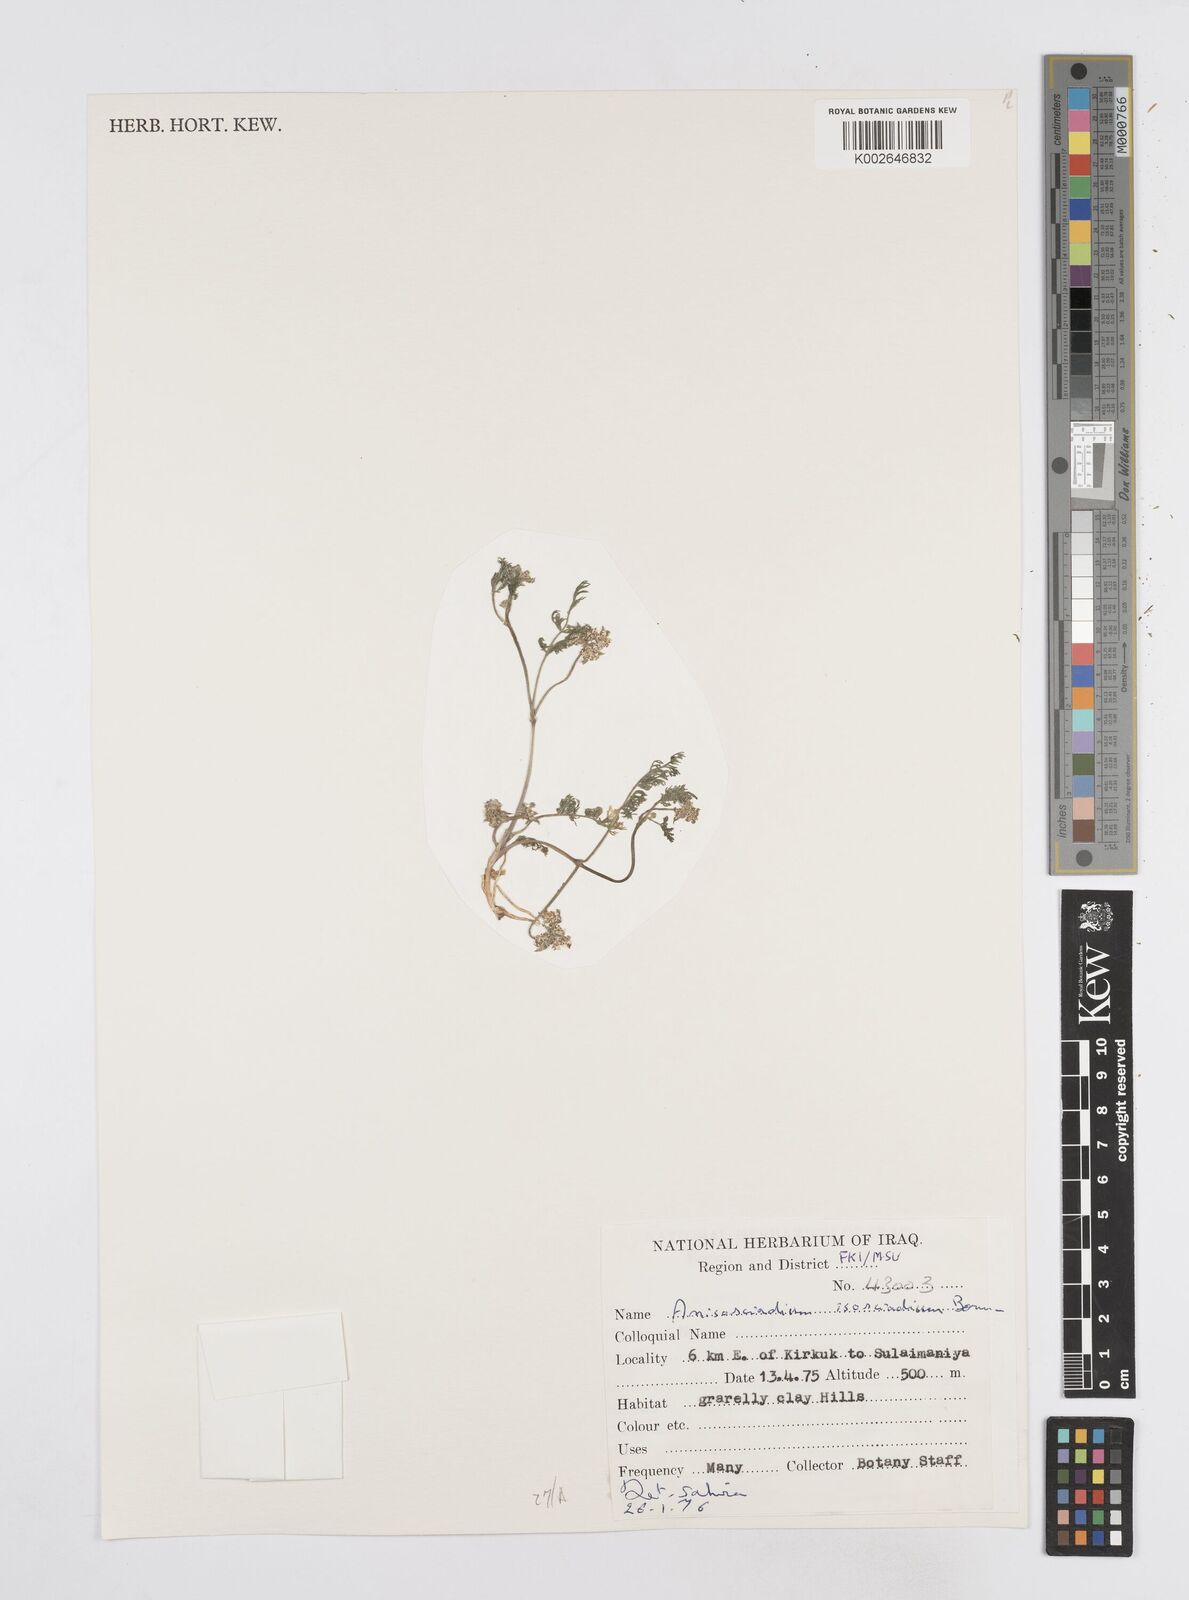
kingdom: Plantae
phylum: Tracheophyta
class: Magnoliopsida
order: Apiales
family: Apiaceae
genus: Anisosciadium
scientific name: Anisosciadium isosciadium
